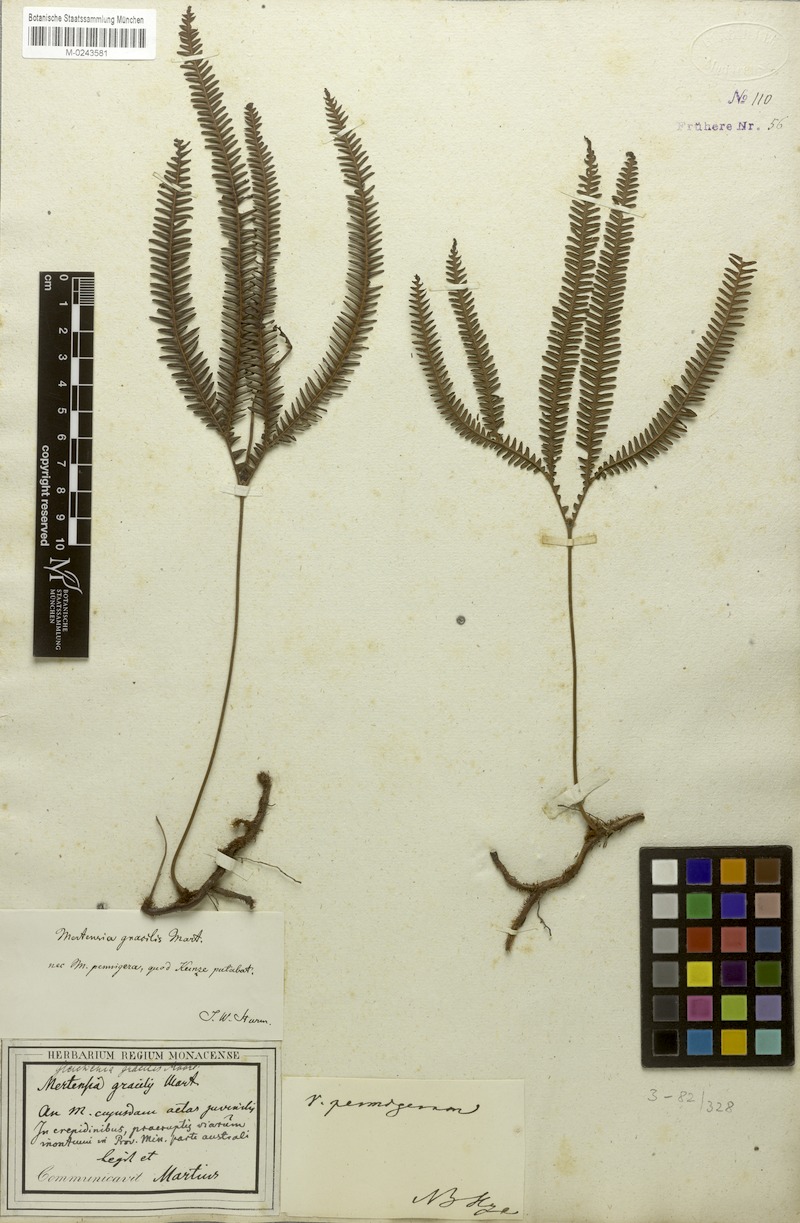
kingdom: Plantae
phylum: Tracheophyta
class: Polypodiopsida
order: Gleicheniales
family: Gleicheniaceae
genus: Sticherus
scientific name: Sticherus gracilis
